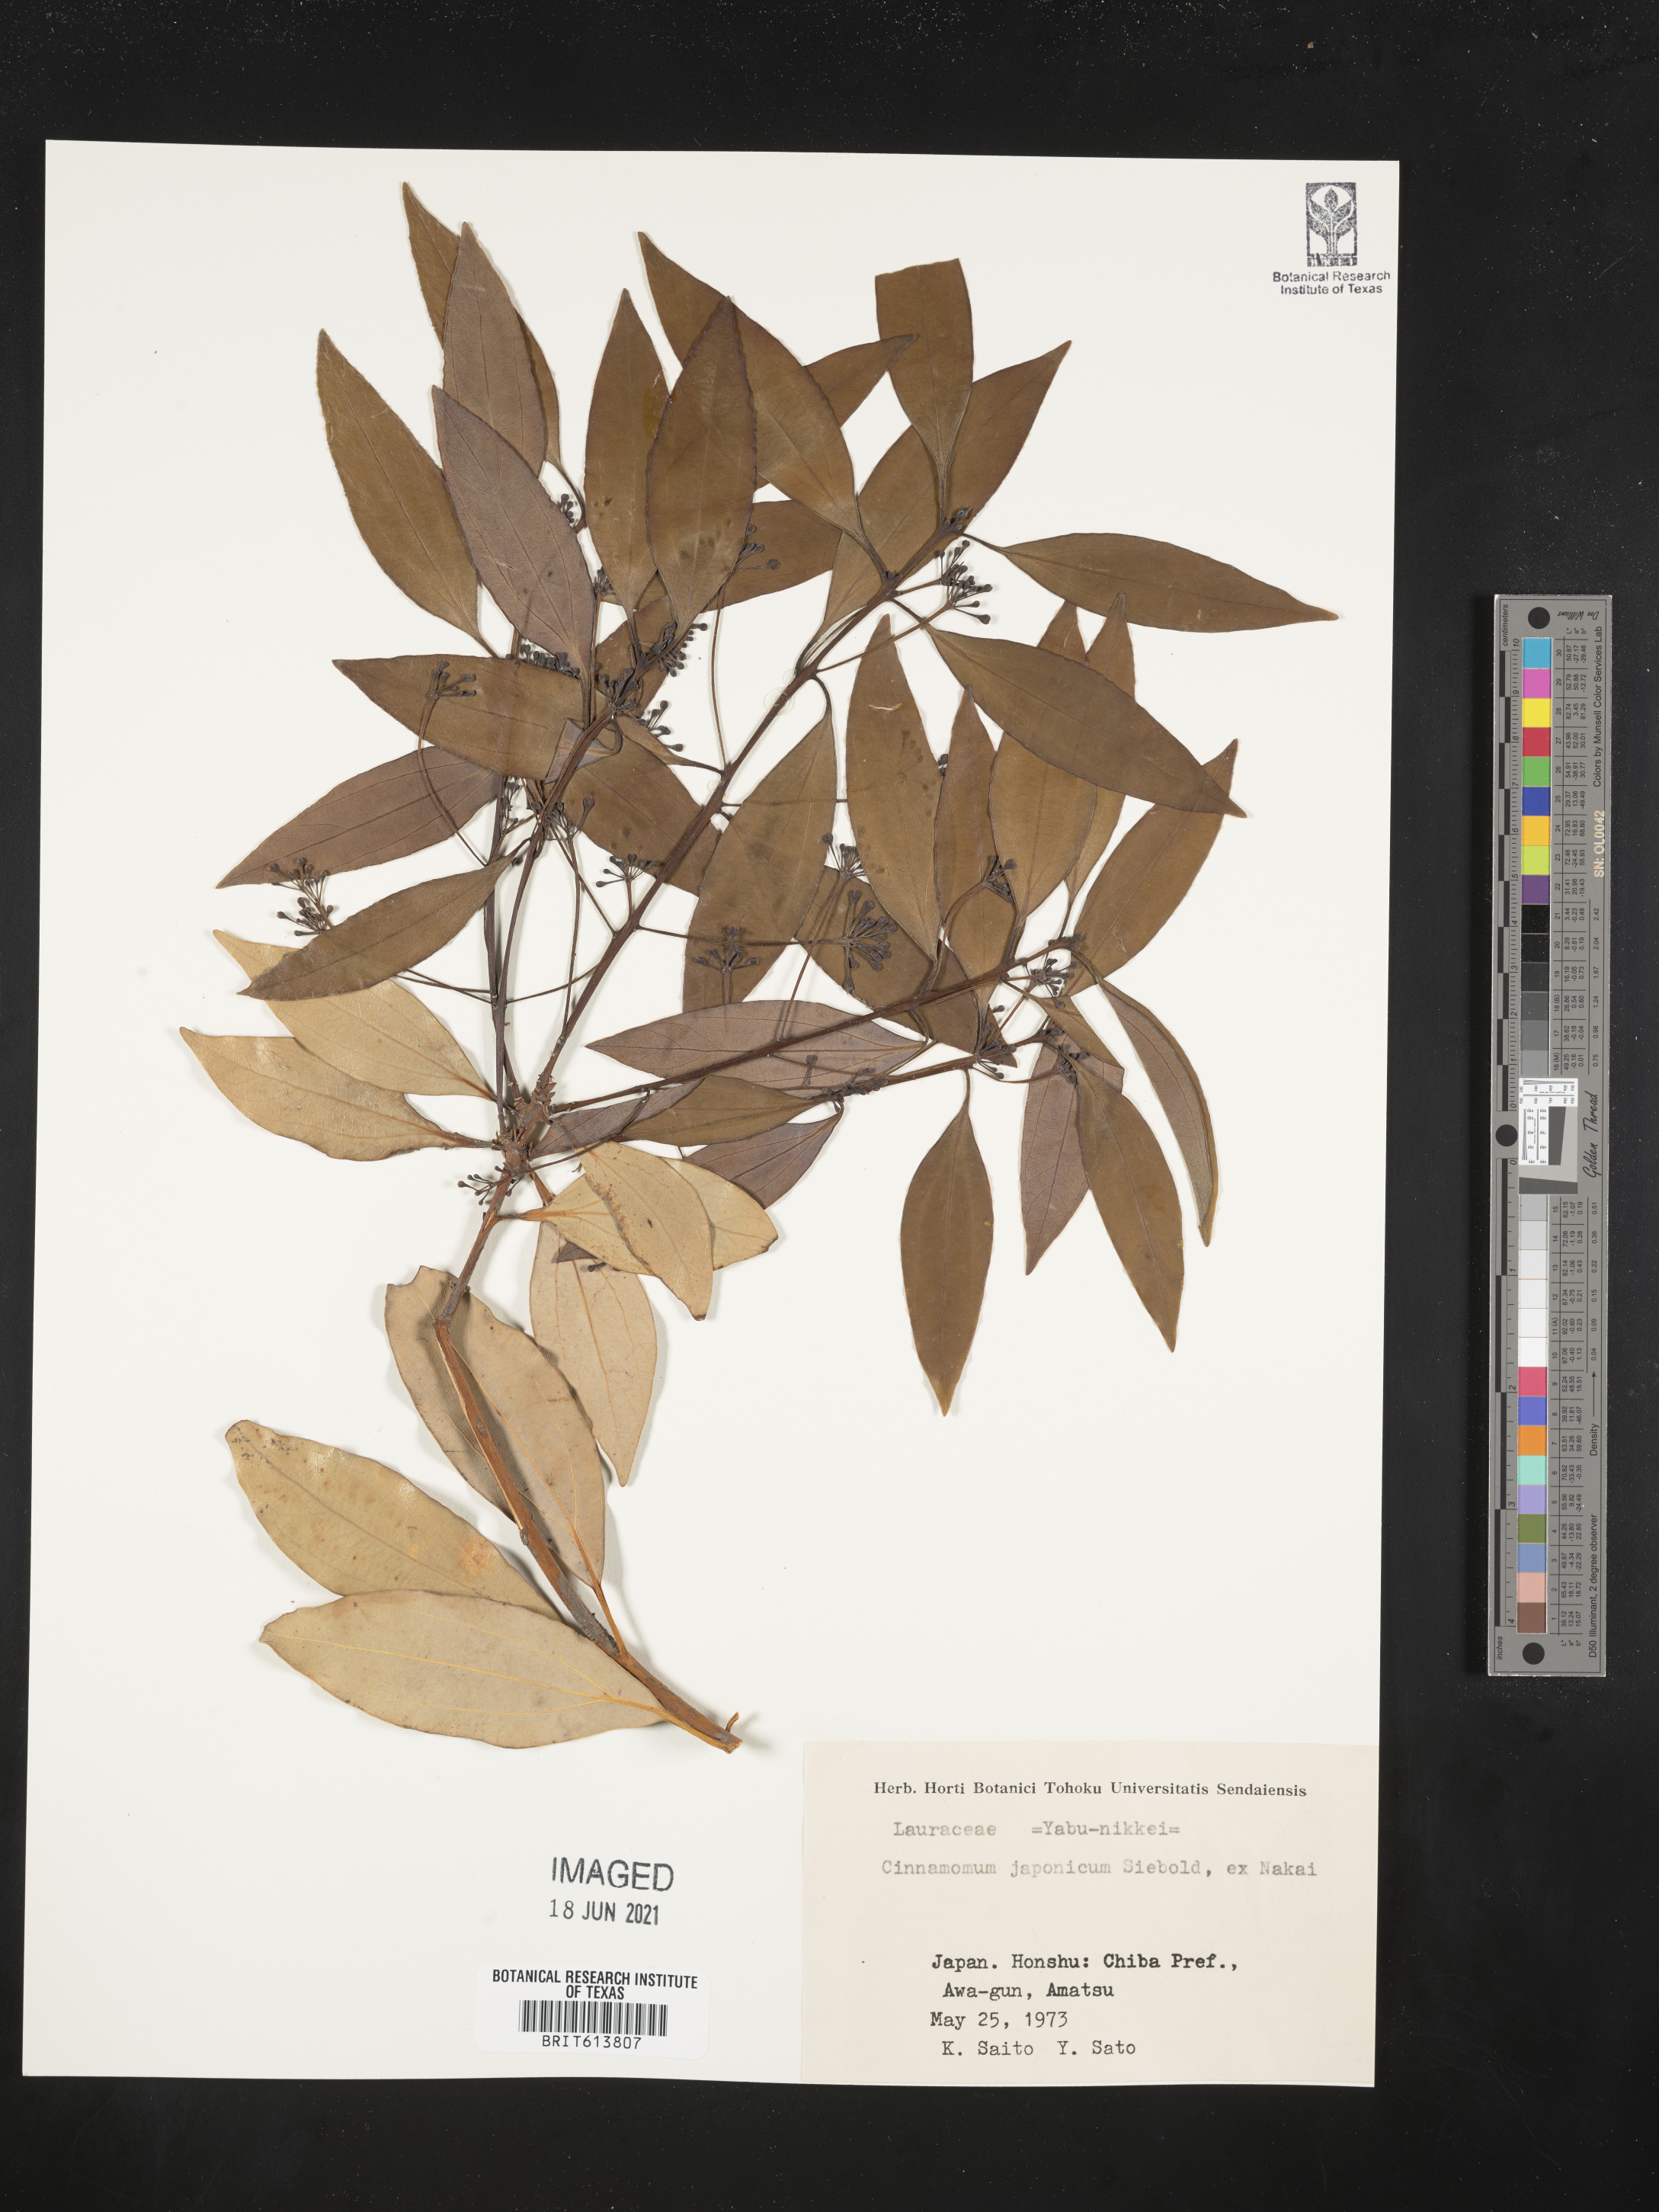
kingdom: Plantae
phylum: Tracheophyta
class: Magnoliopsida
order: Laurales
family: Lauraceae
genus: Cinnamomum
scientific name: Cinnamomum chekiangense
